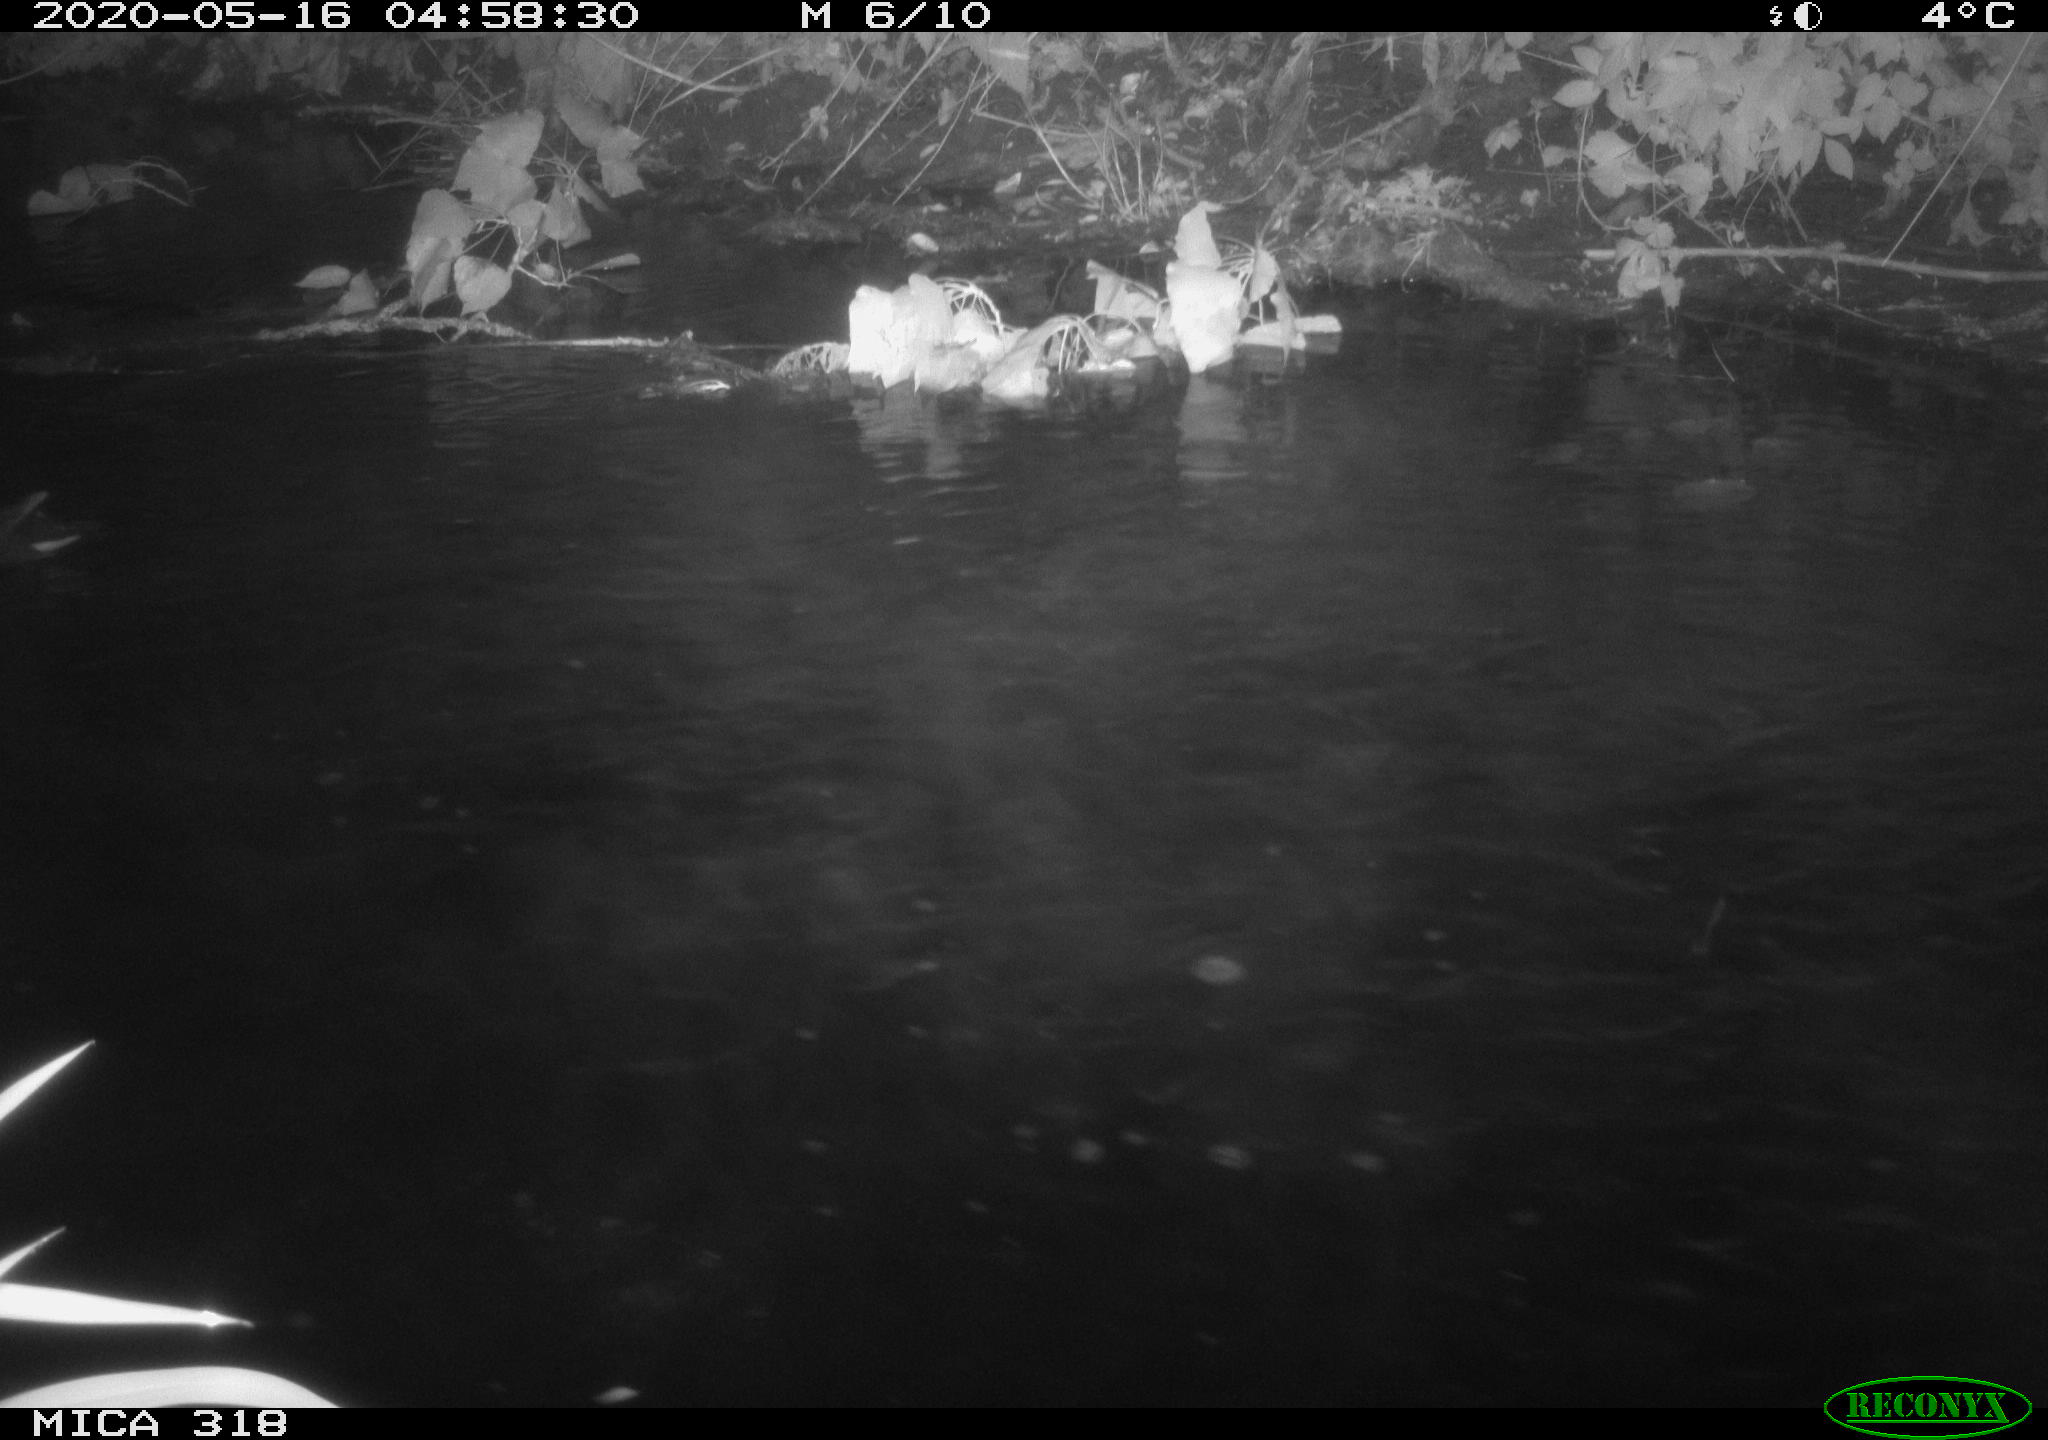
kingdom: Animalia
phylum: Chordata
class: Aves
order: Gruiformes
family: Rallidae
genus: Gallinula
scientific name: Gallinula chloropus
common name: Common moorhen
